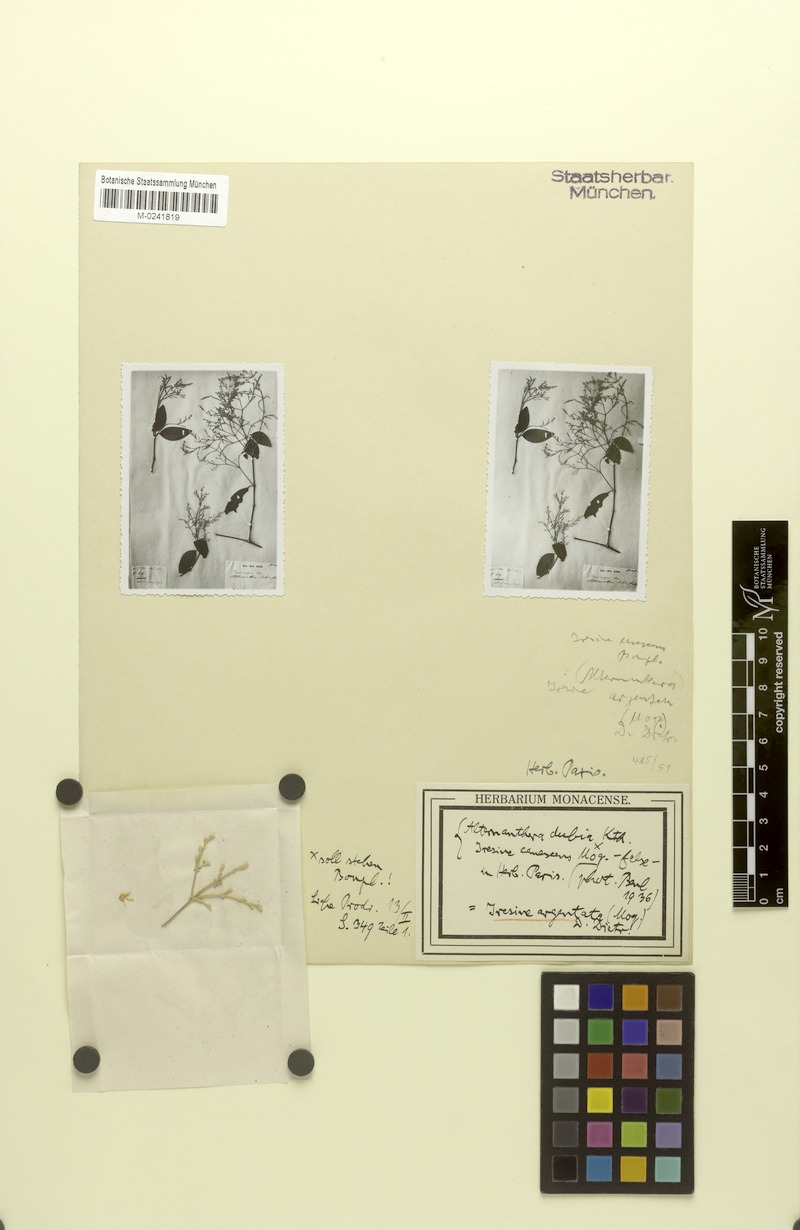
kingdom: Plantae
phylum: Tracheophyta
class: Magnoliopsida
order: Caryophyllales
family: Amaranthaceae
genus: Iresine
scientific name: Iresine diffusa
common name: Juba's-bush
